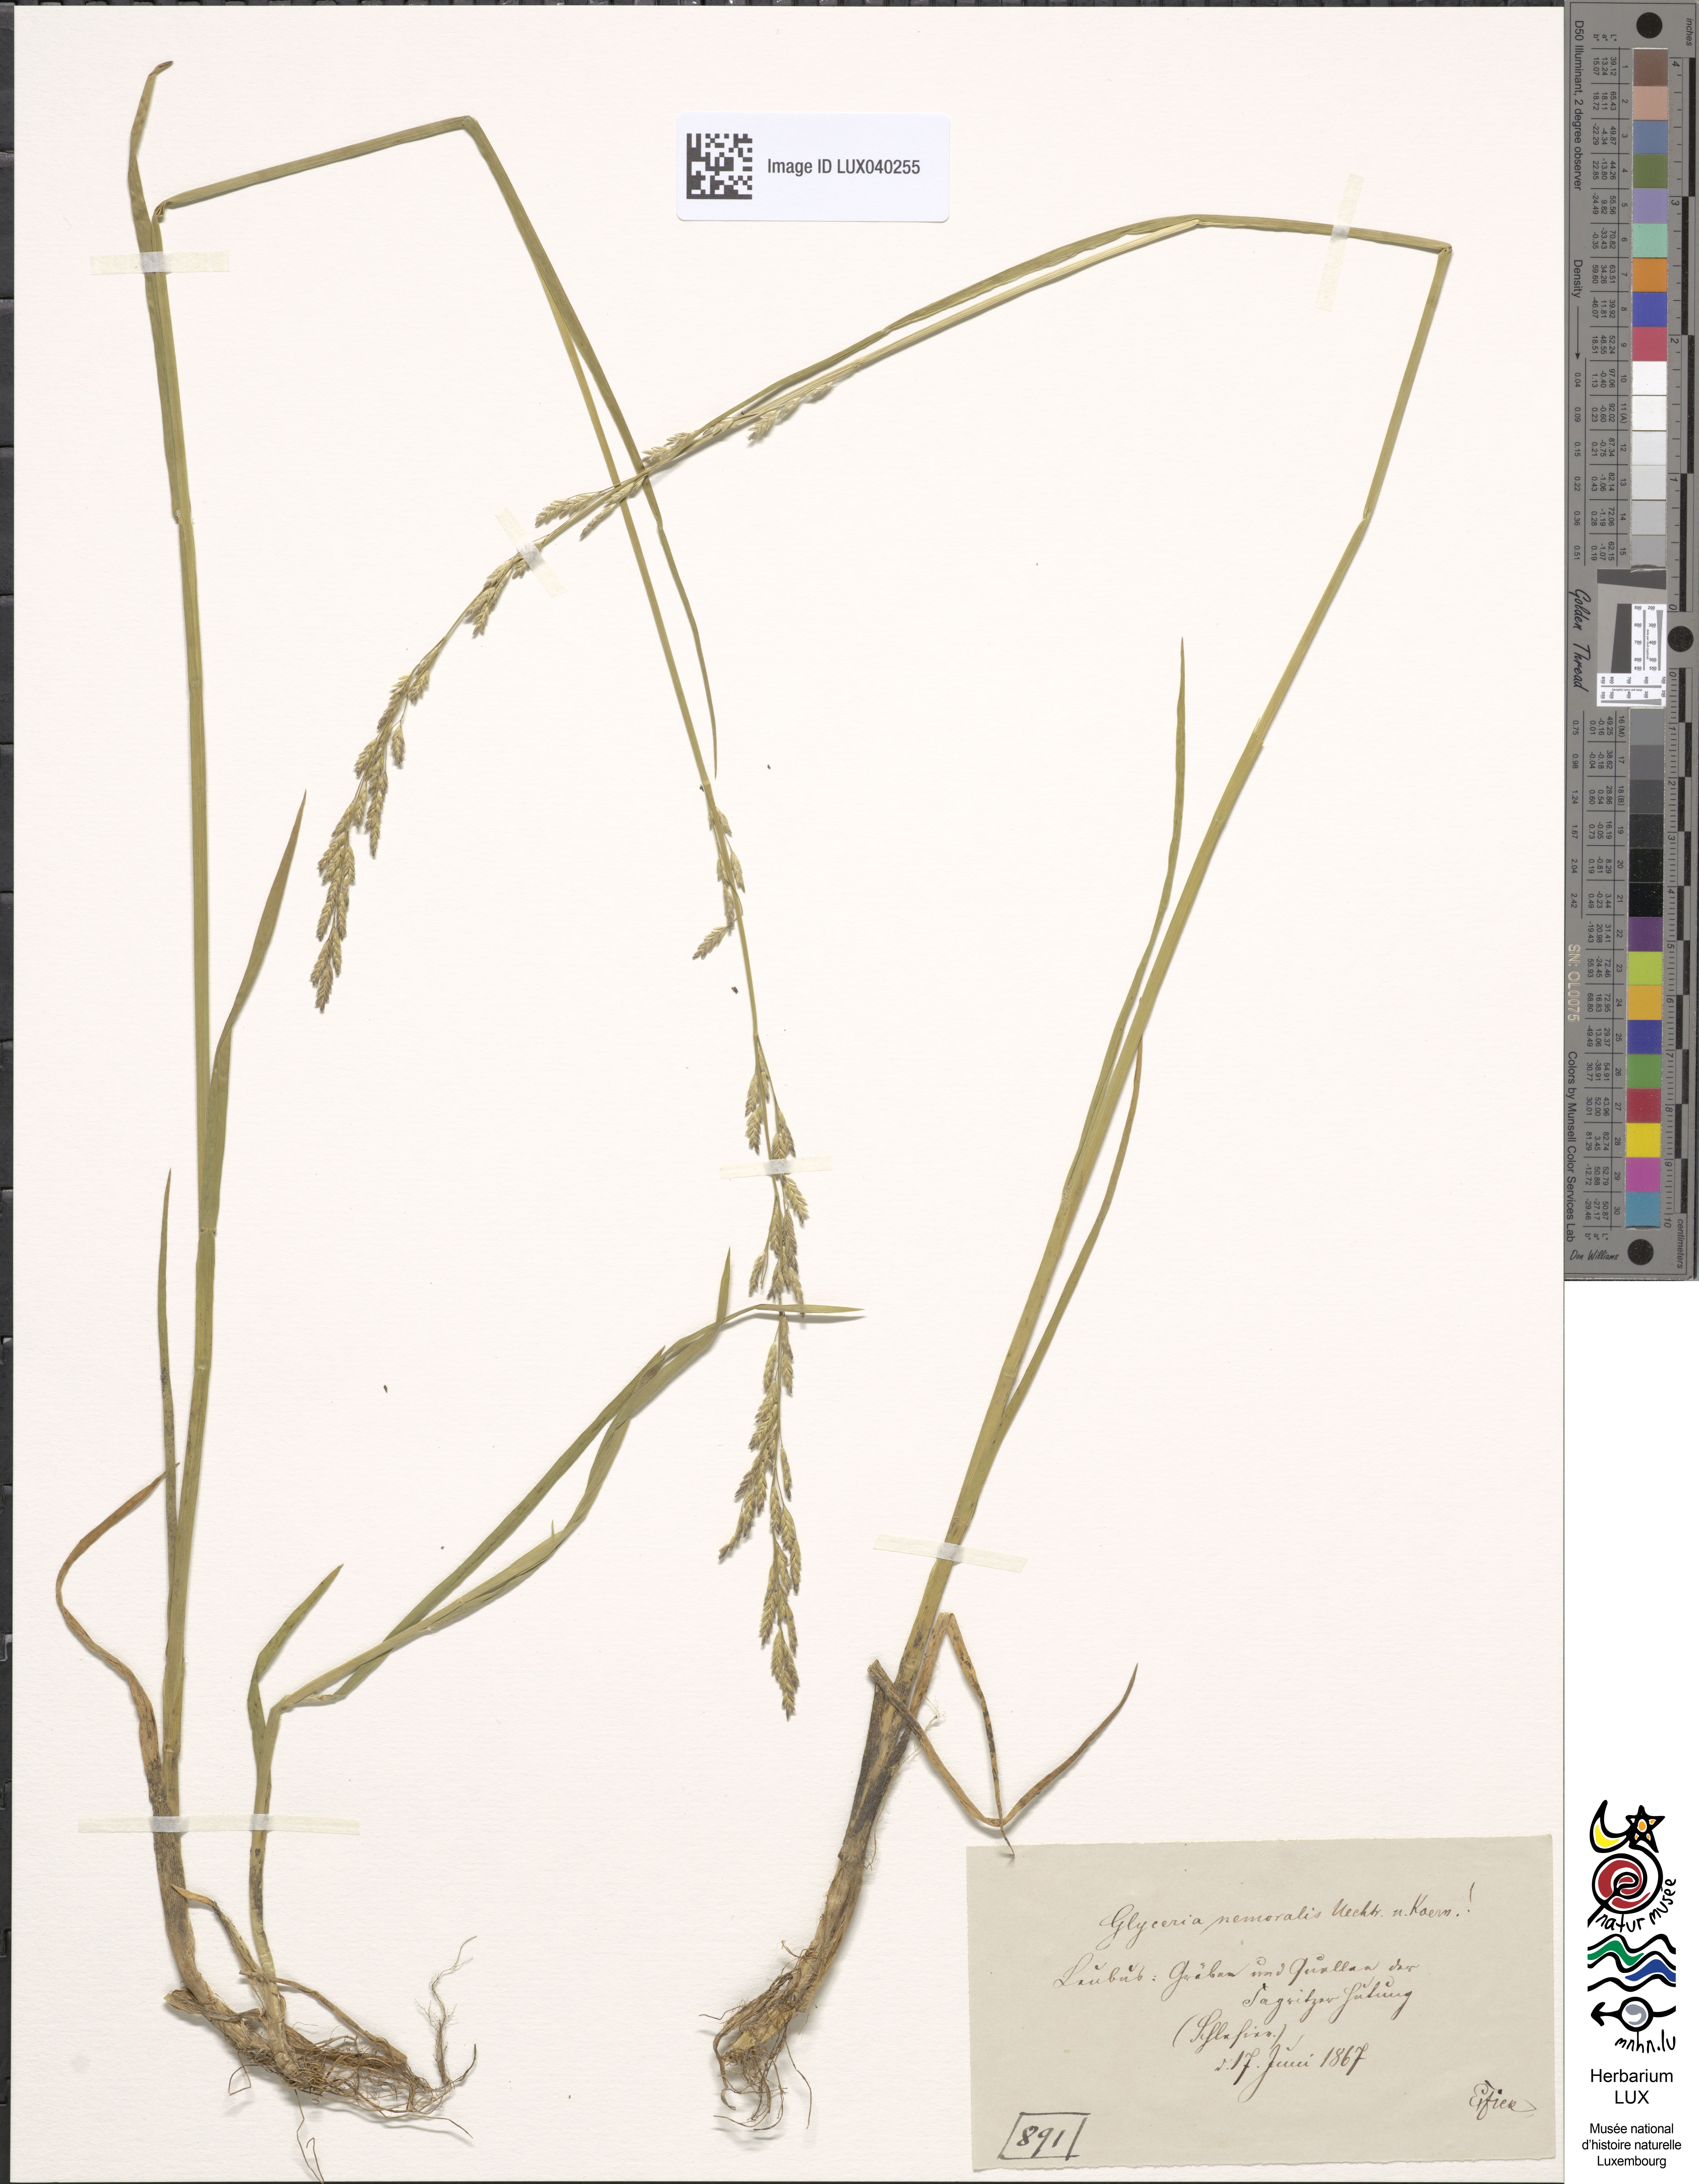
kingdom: Plantae
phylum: Tracheophyta
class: Liliopsida
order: Poales
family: Poaceae
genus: Glyceria
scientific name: Glyceria nemoralis
